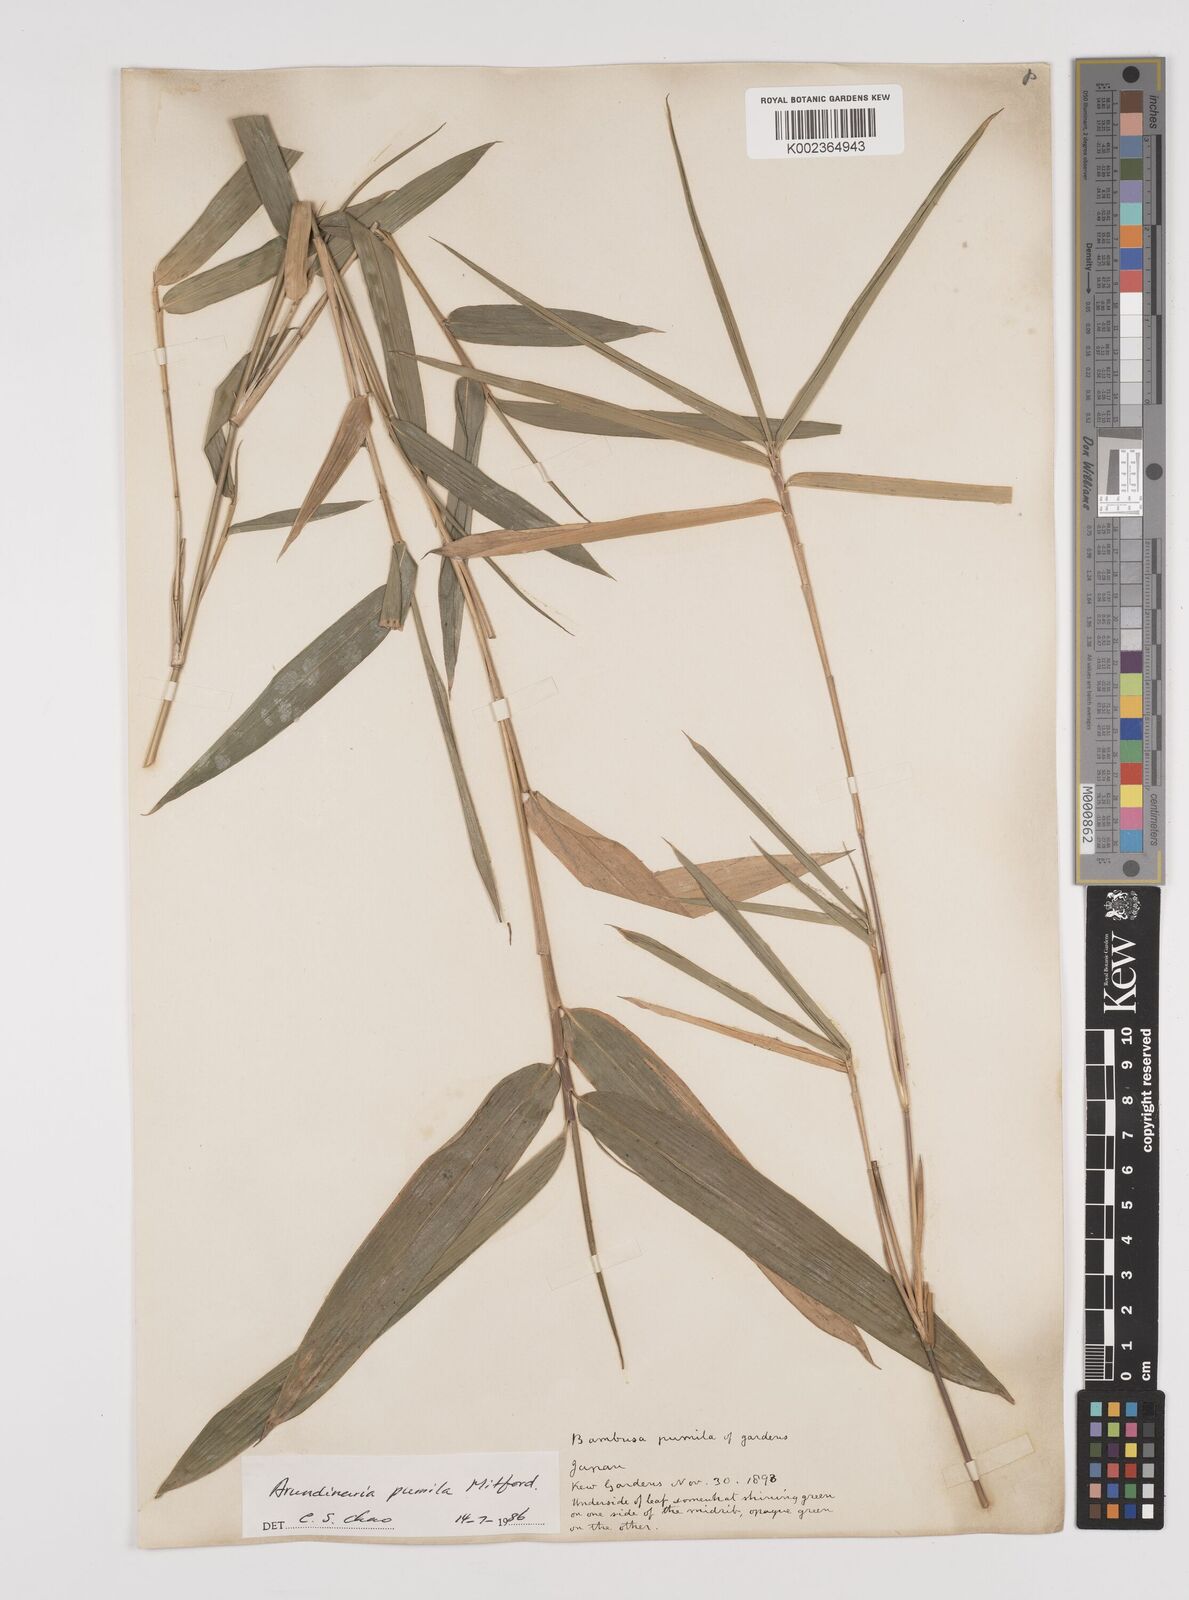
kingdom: Plantae
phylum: Tracheophyta
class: Liliopsida
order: Poales
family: Poaceae
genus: Pleioblastus
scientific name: Pleioblastus argenteostriatus
